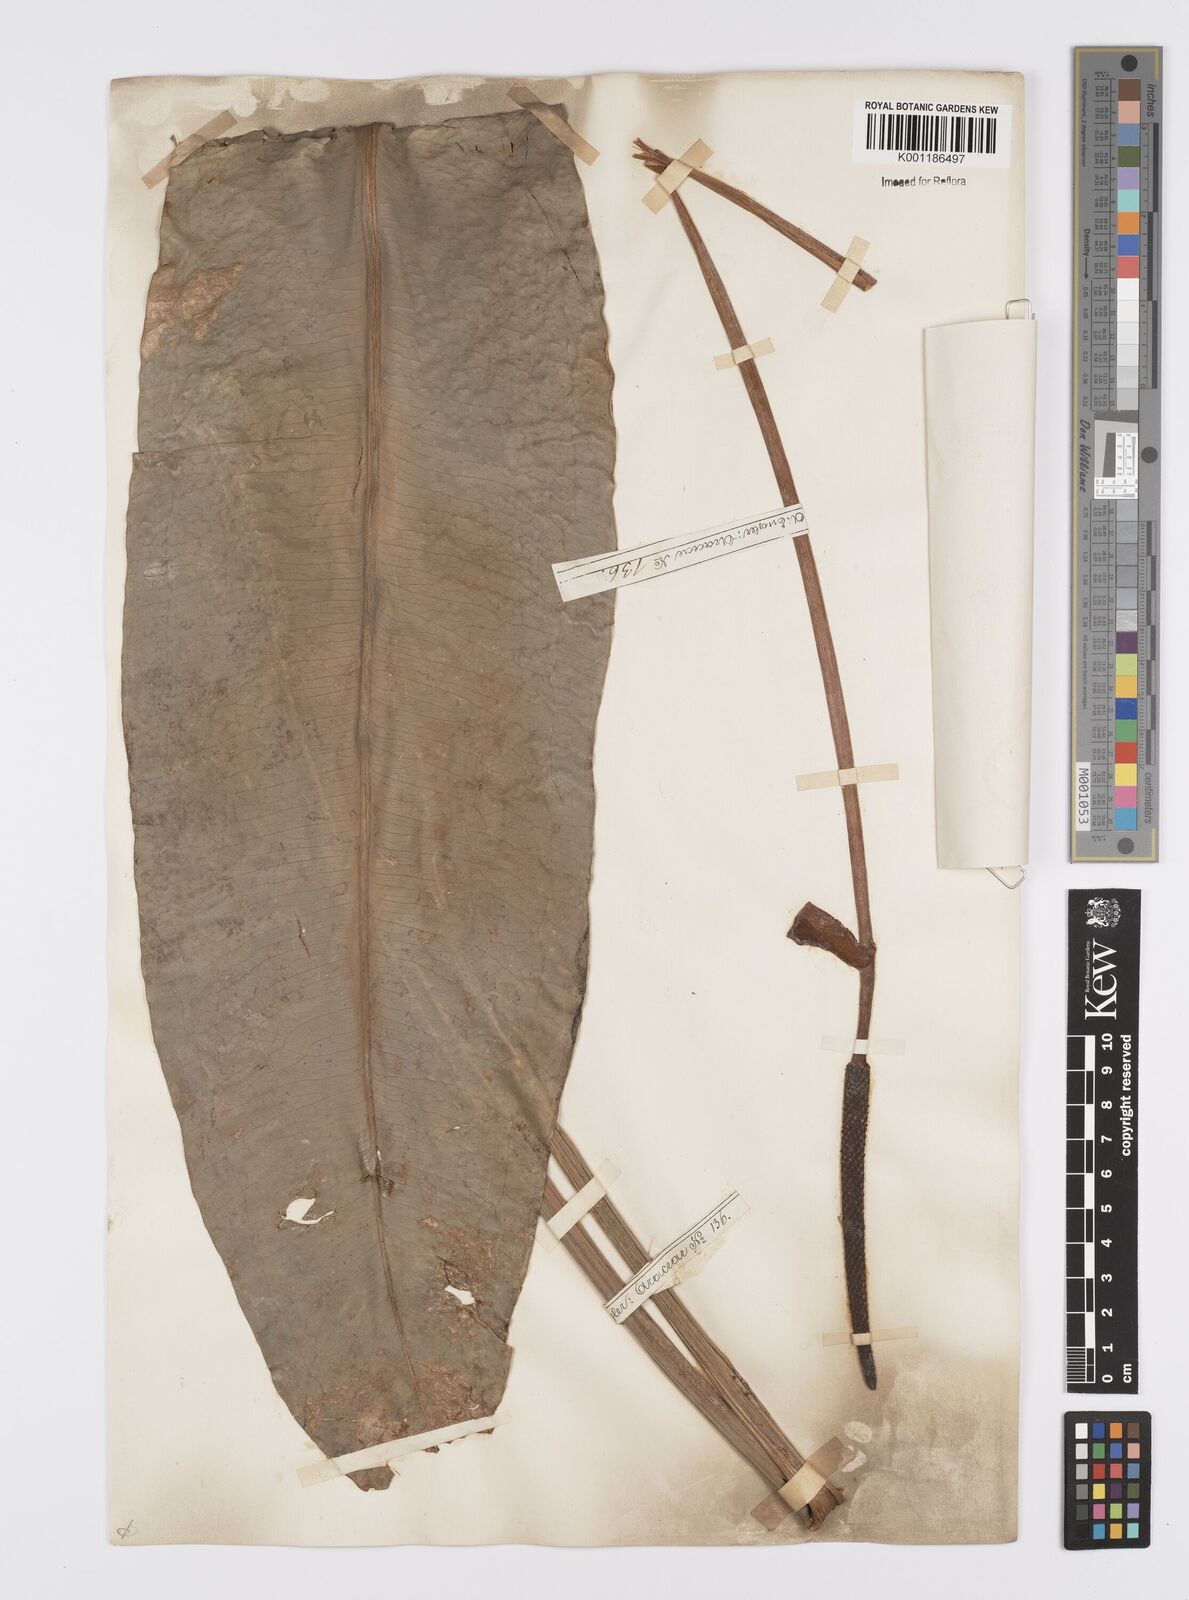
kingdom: Plantae
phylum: Tracheophyta
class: Liliopsida
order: Alismatales
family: Araceae
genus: Anthurium
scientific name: Anthurium geitnerianum
